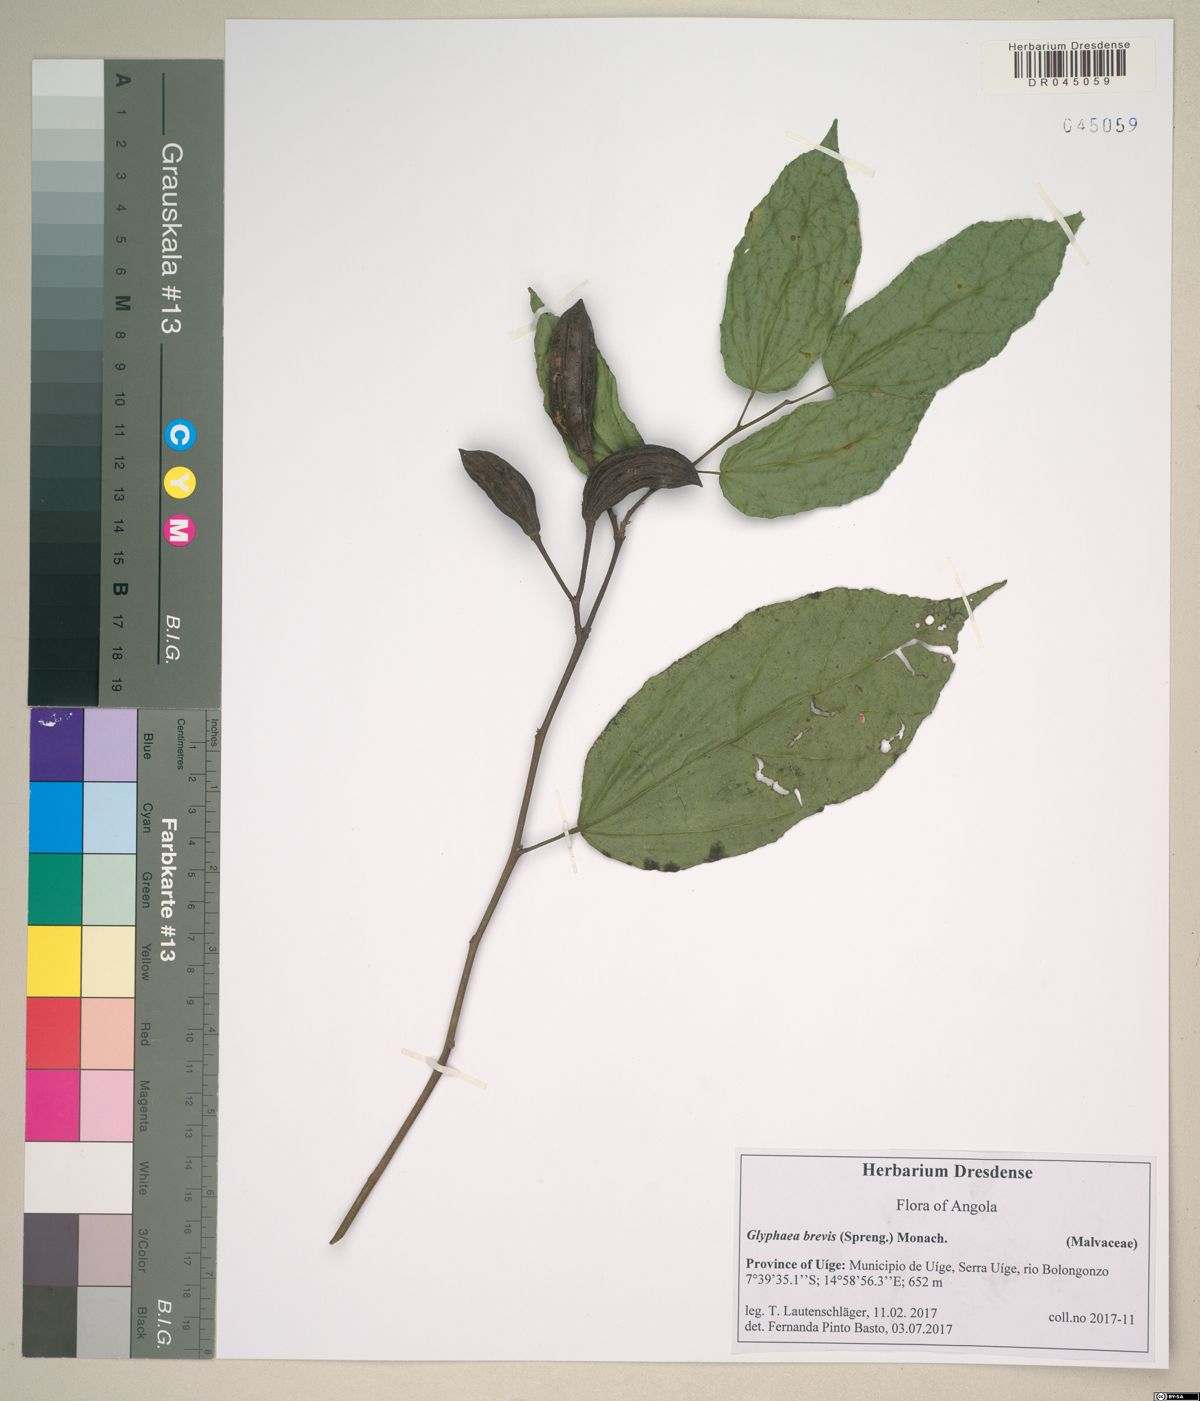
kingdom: Plantae
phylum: Tracheophyta
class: Magnoliopsida
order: Malvales
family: Malvaceae
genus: Glyphaea
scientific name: Glyphaea brevis
